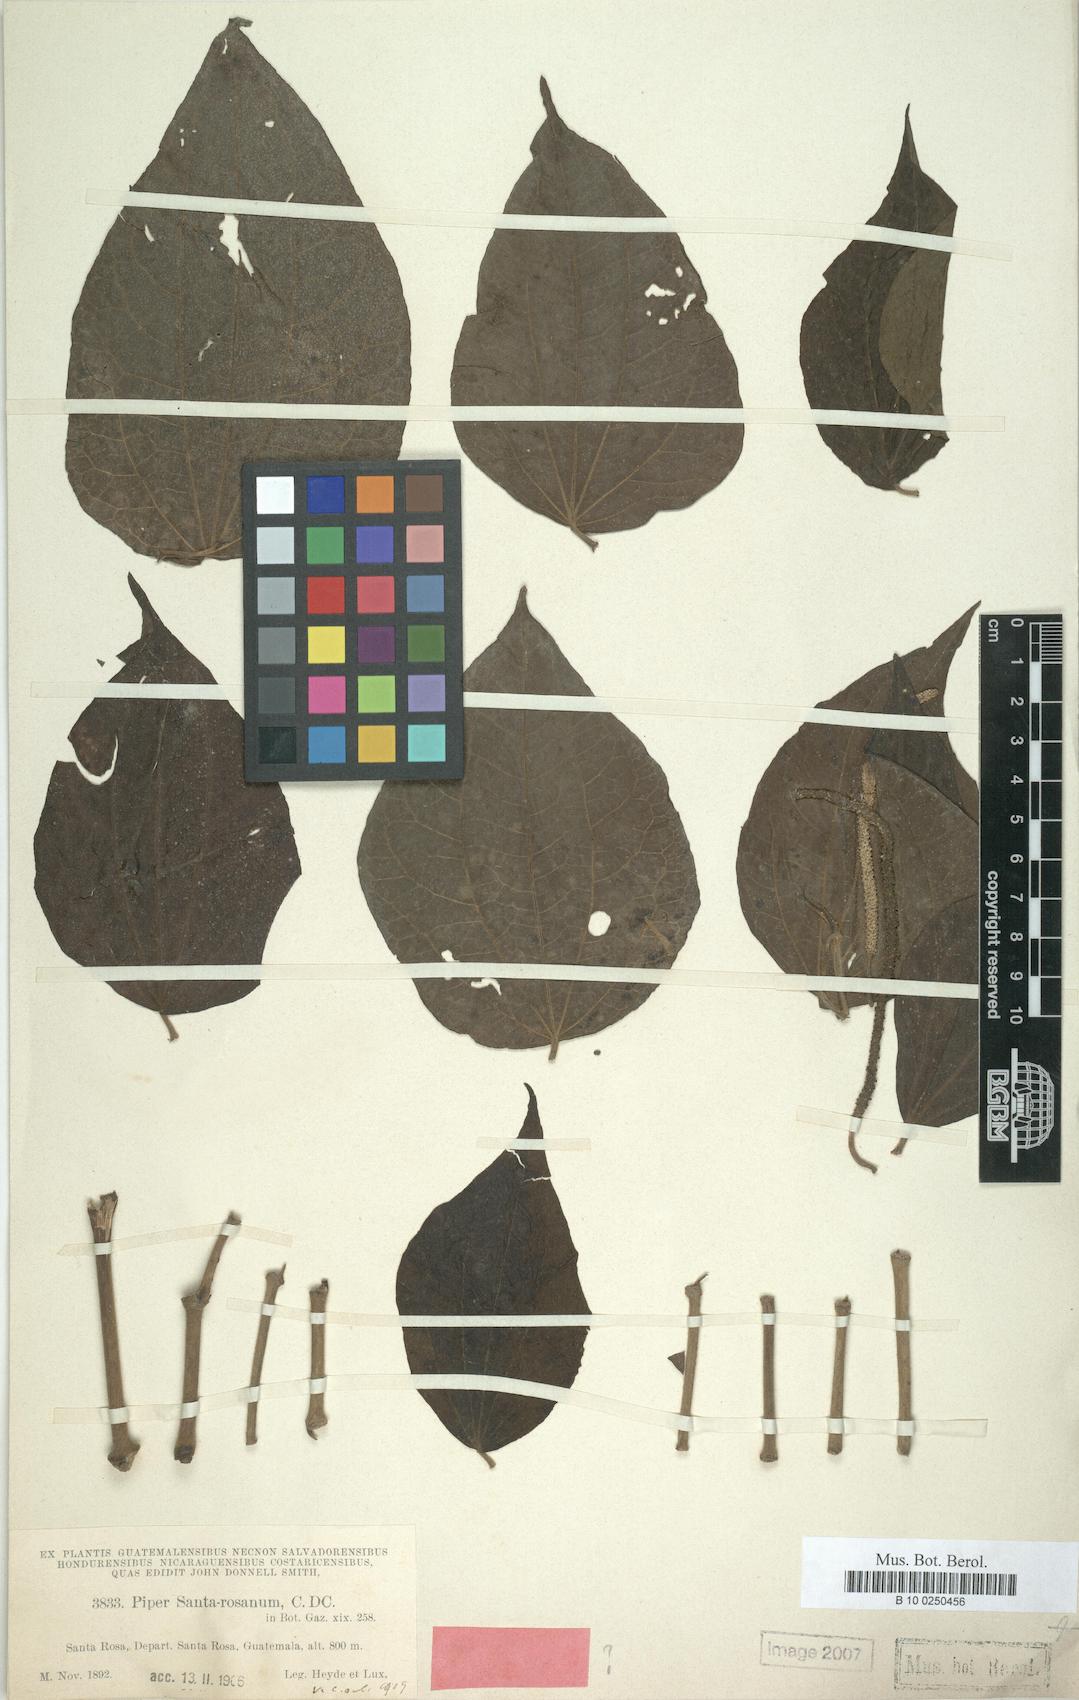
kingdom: Plantae
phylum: Tracheophyta
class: Magnoliopsida
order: Piperales
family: Piperaceae
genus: Piper
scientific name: Piper santa-rosanum
